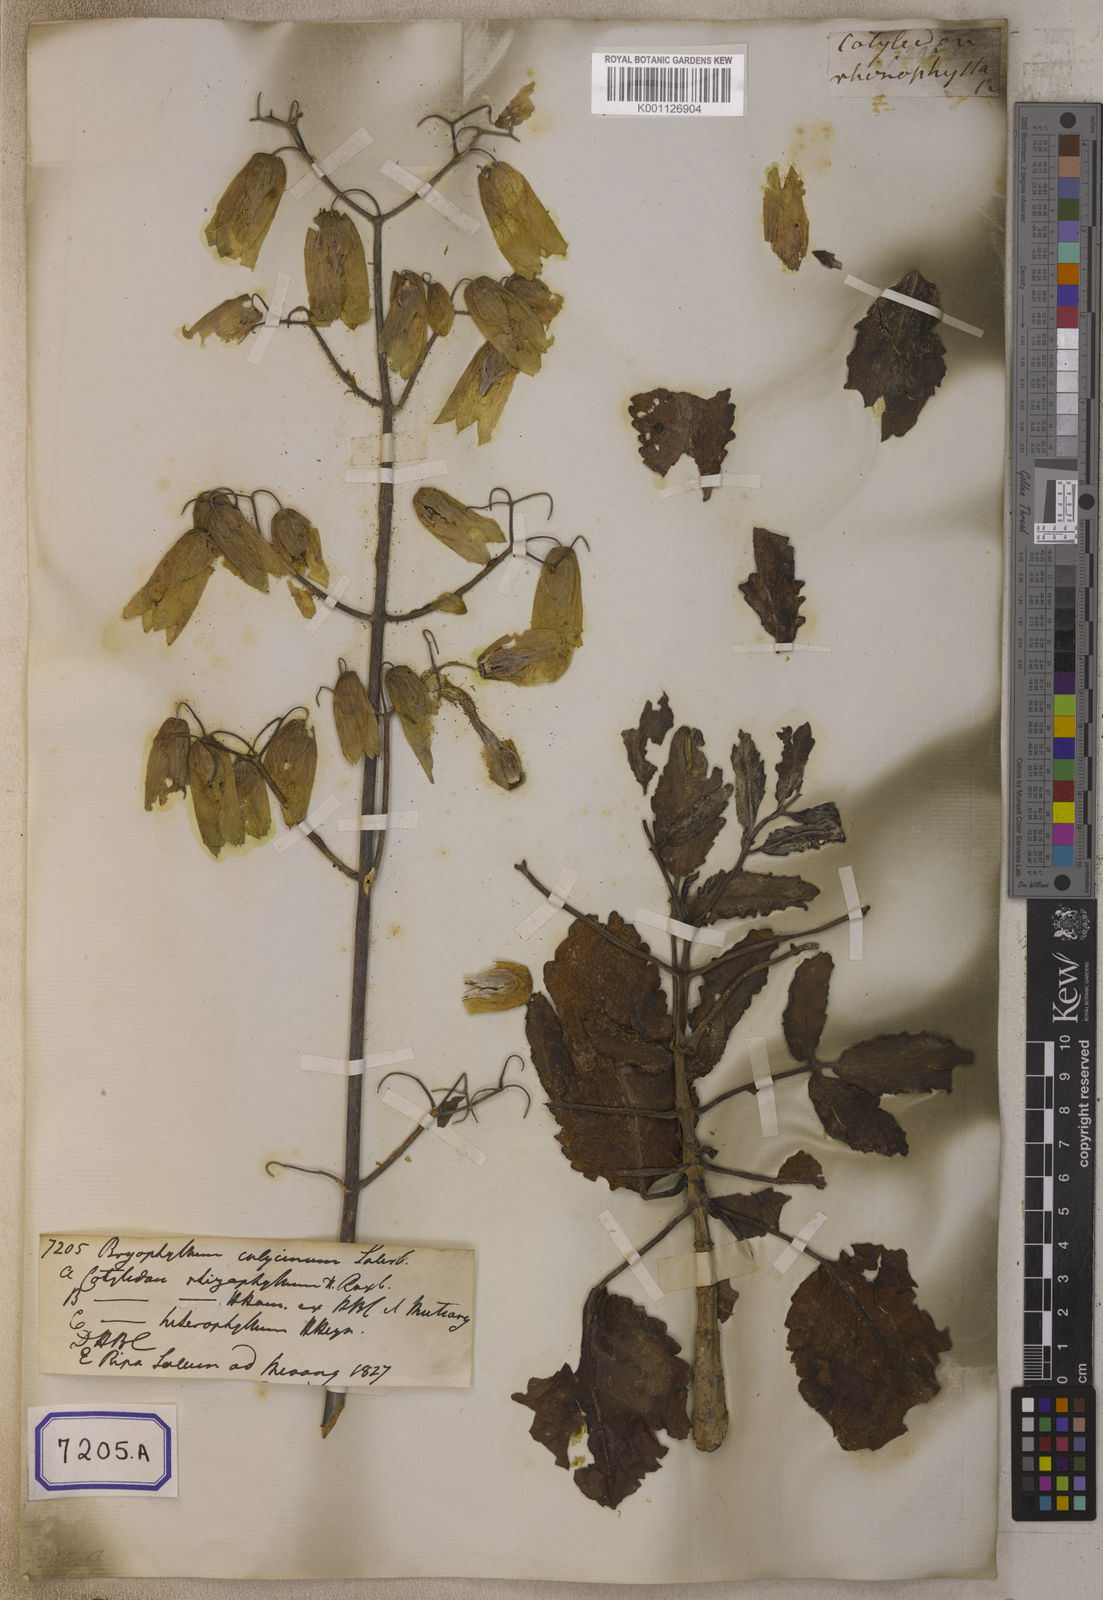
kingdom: Plantae
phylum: Tracheophyta
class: Magnoliopsida
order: Saxifragales
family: Crassulaceae
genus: Kalanchoe
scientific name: Kalanchoe pinnata
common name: Cathedral bells
